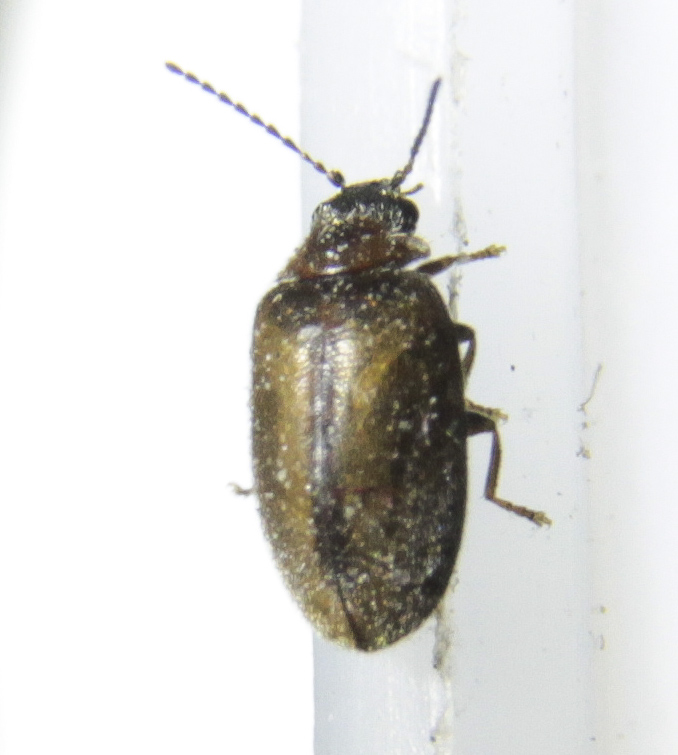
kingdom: Animalia
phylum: Arthropoda
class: Insecta
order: Coleoptera
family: Scirtidae
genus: Contacyphon
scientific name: Contacyphon
